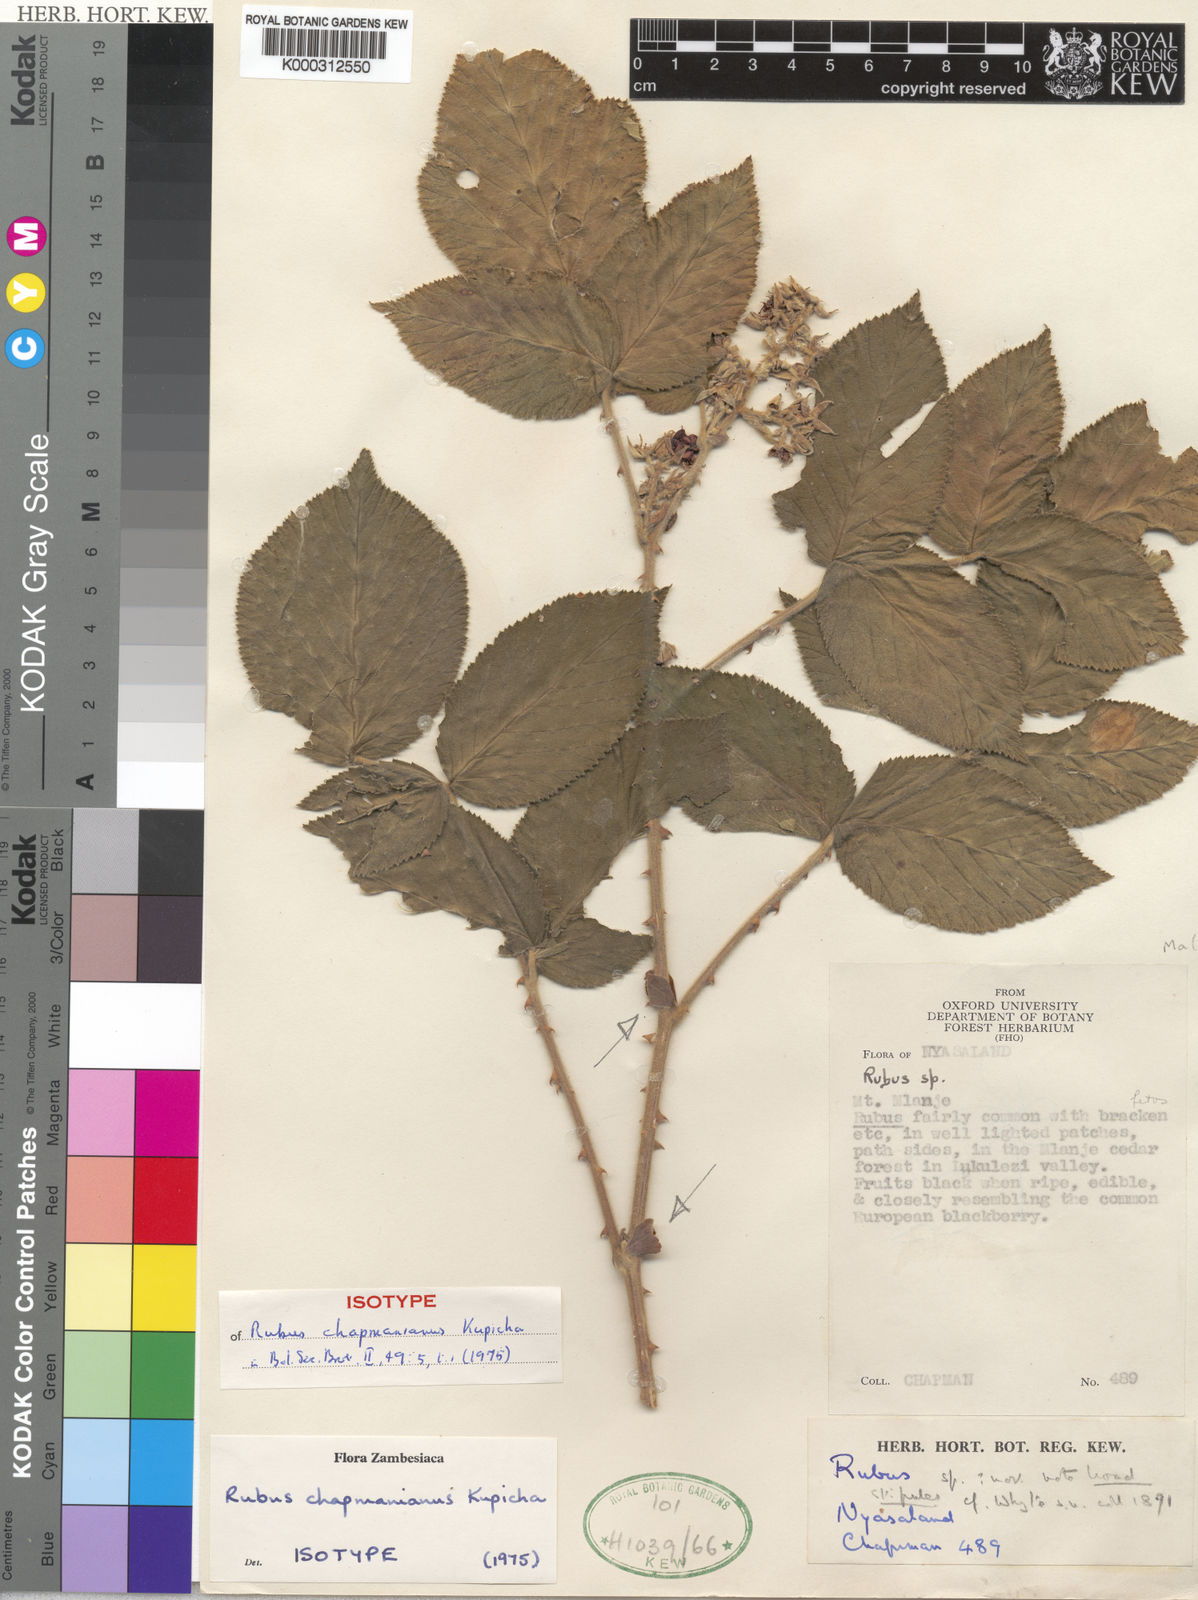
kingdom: Plantae
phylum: Tracheophyta
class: Magnoliopsida
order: Rosales
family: Rosaceae
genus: Rubus
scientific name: Rubus chapmanianus
